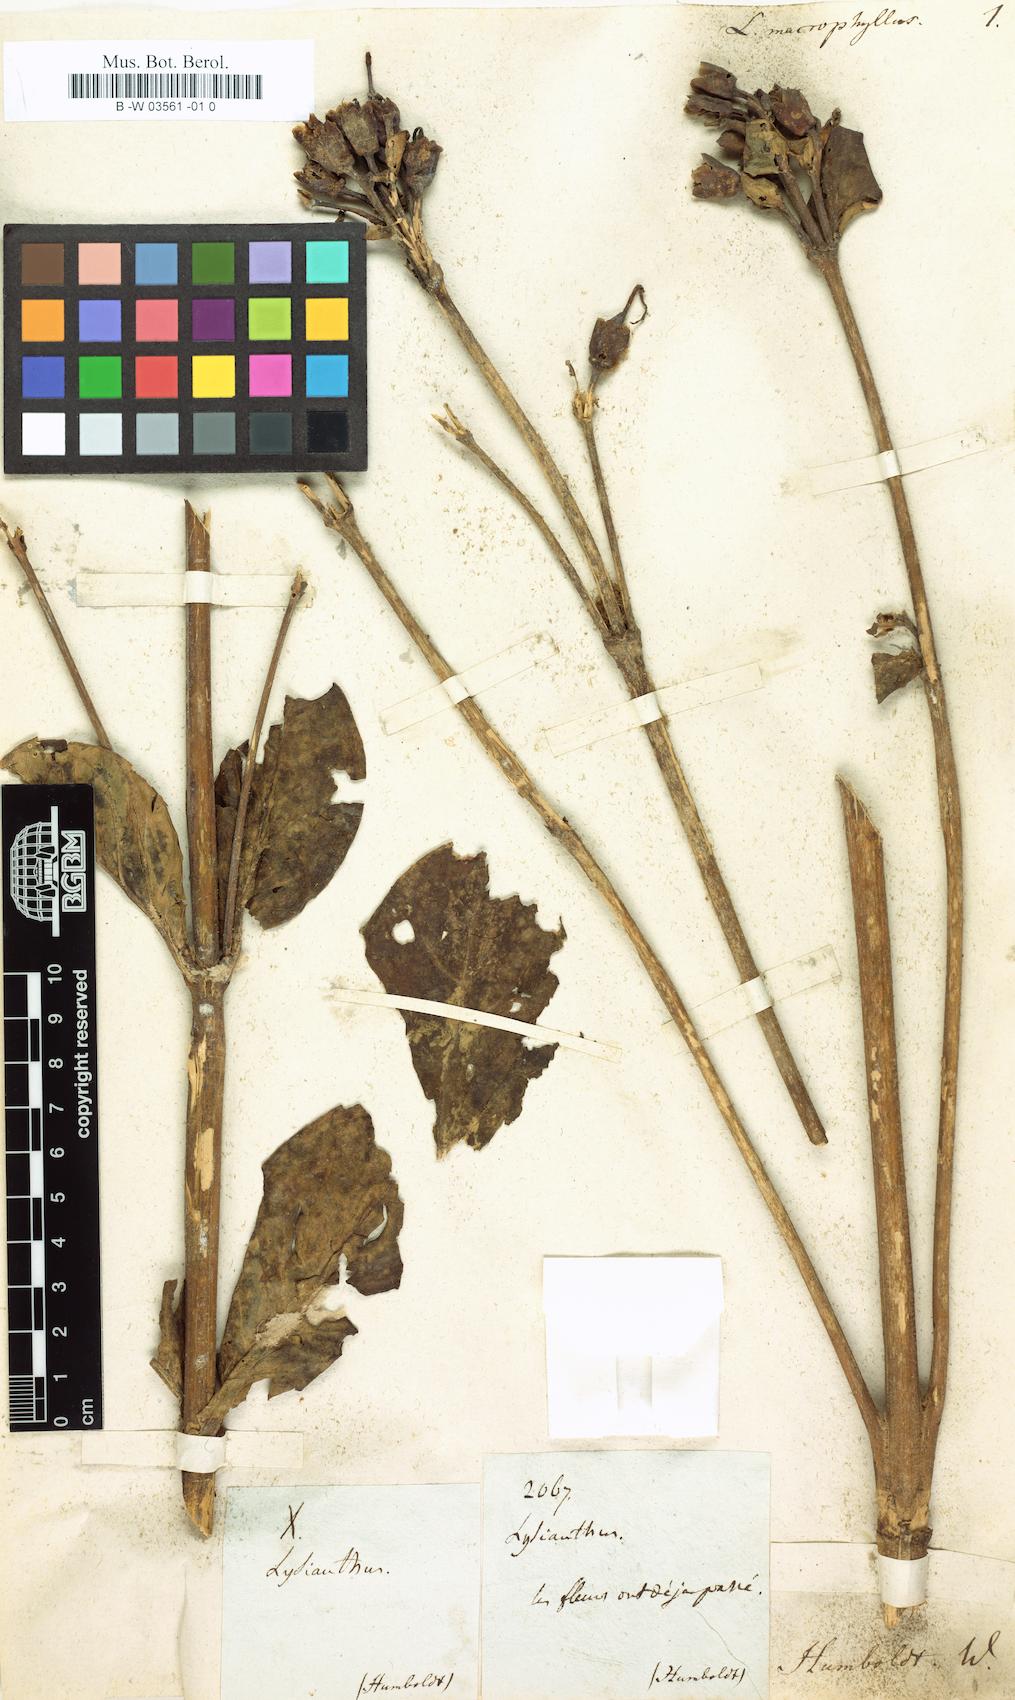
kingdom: Plantae
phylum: Tracheophyta
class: Magnoliopsida
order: Gentianales
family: Gentianaceae
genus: Macrocarpaea
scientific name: Macrocarpaea
